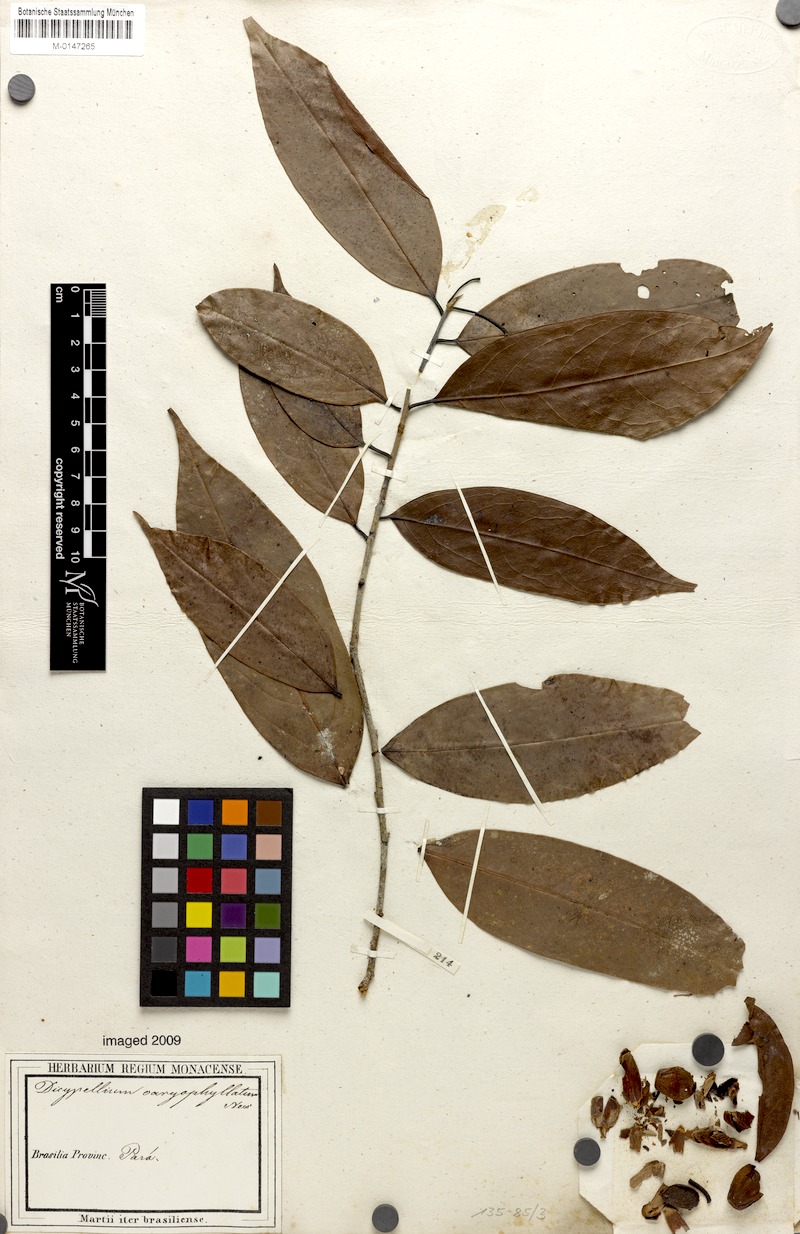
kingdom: Plantae
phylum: Tracheophyta
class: Magnoliopsida
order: Laurales
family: Lauraceae
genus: Dicypellium
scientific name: Dicypellium caryophyllaceum
